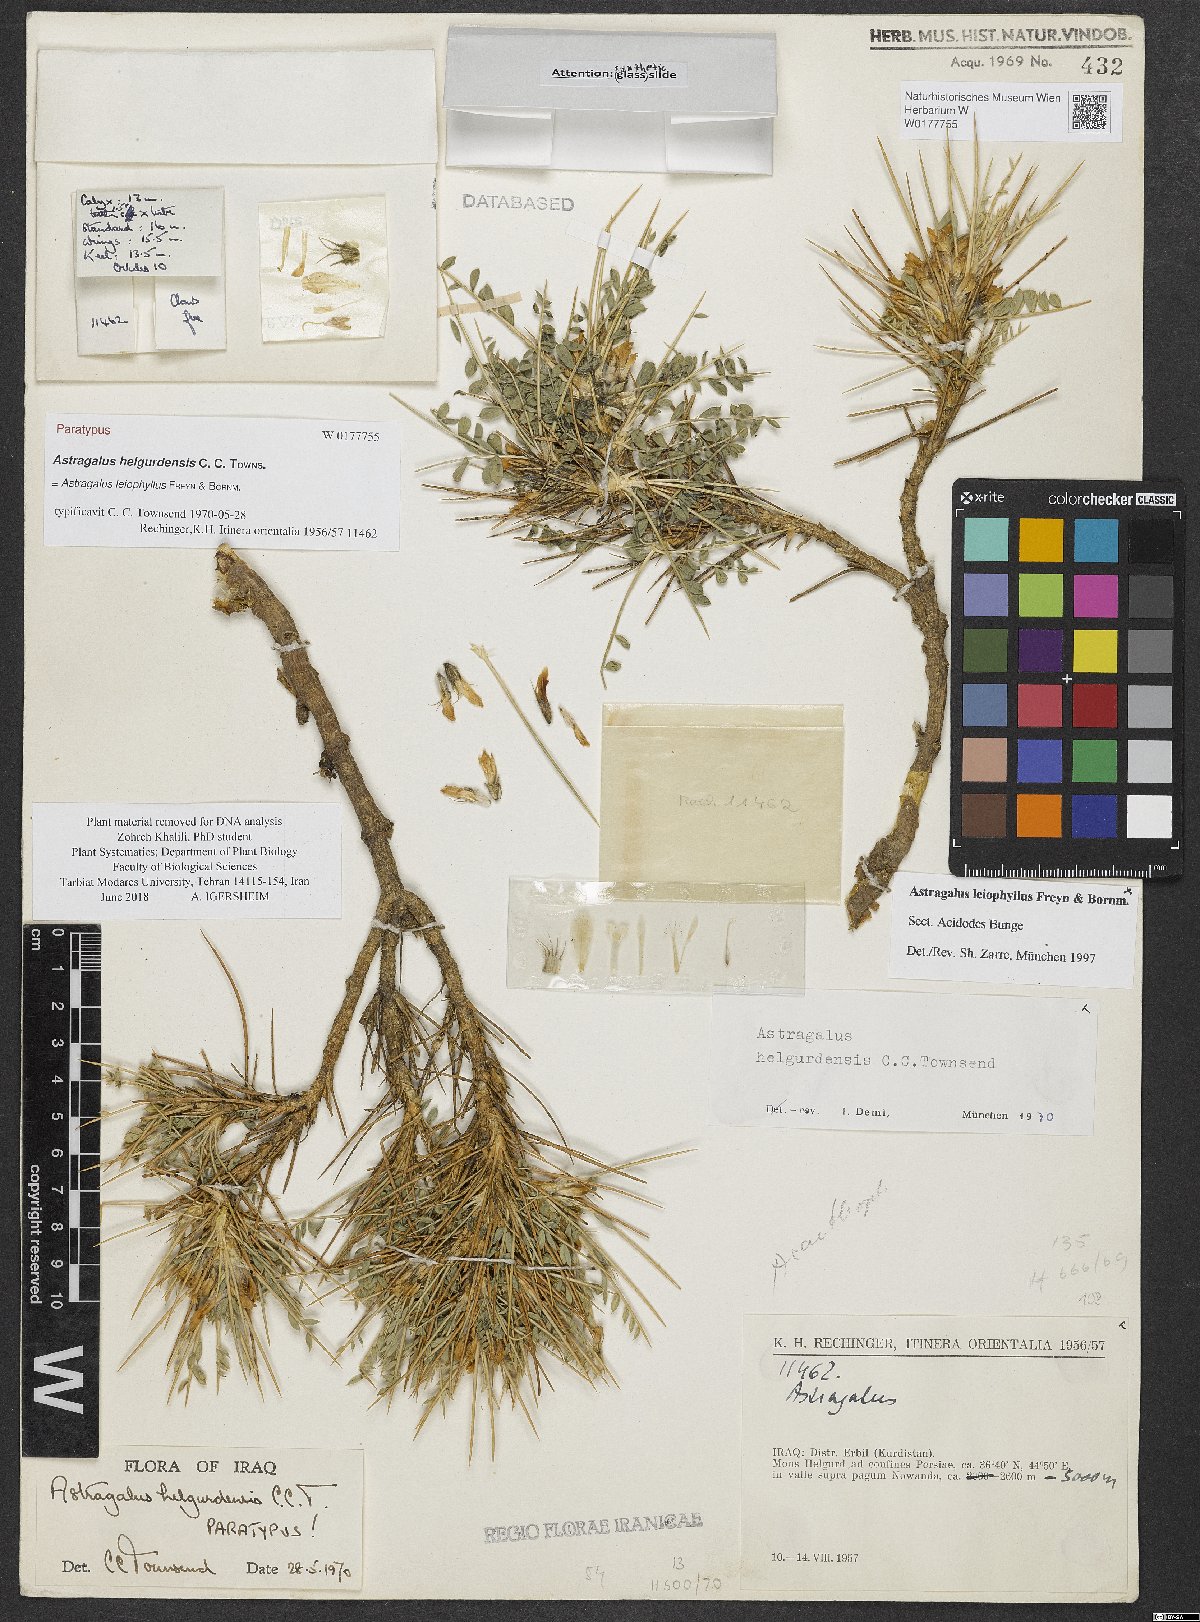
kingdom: Plantae
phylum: Tracheophyta
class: Magnoliopsida
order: Fabales
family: Fabaceae
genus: Astragalus
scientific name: Astragalus leiophyllus
